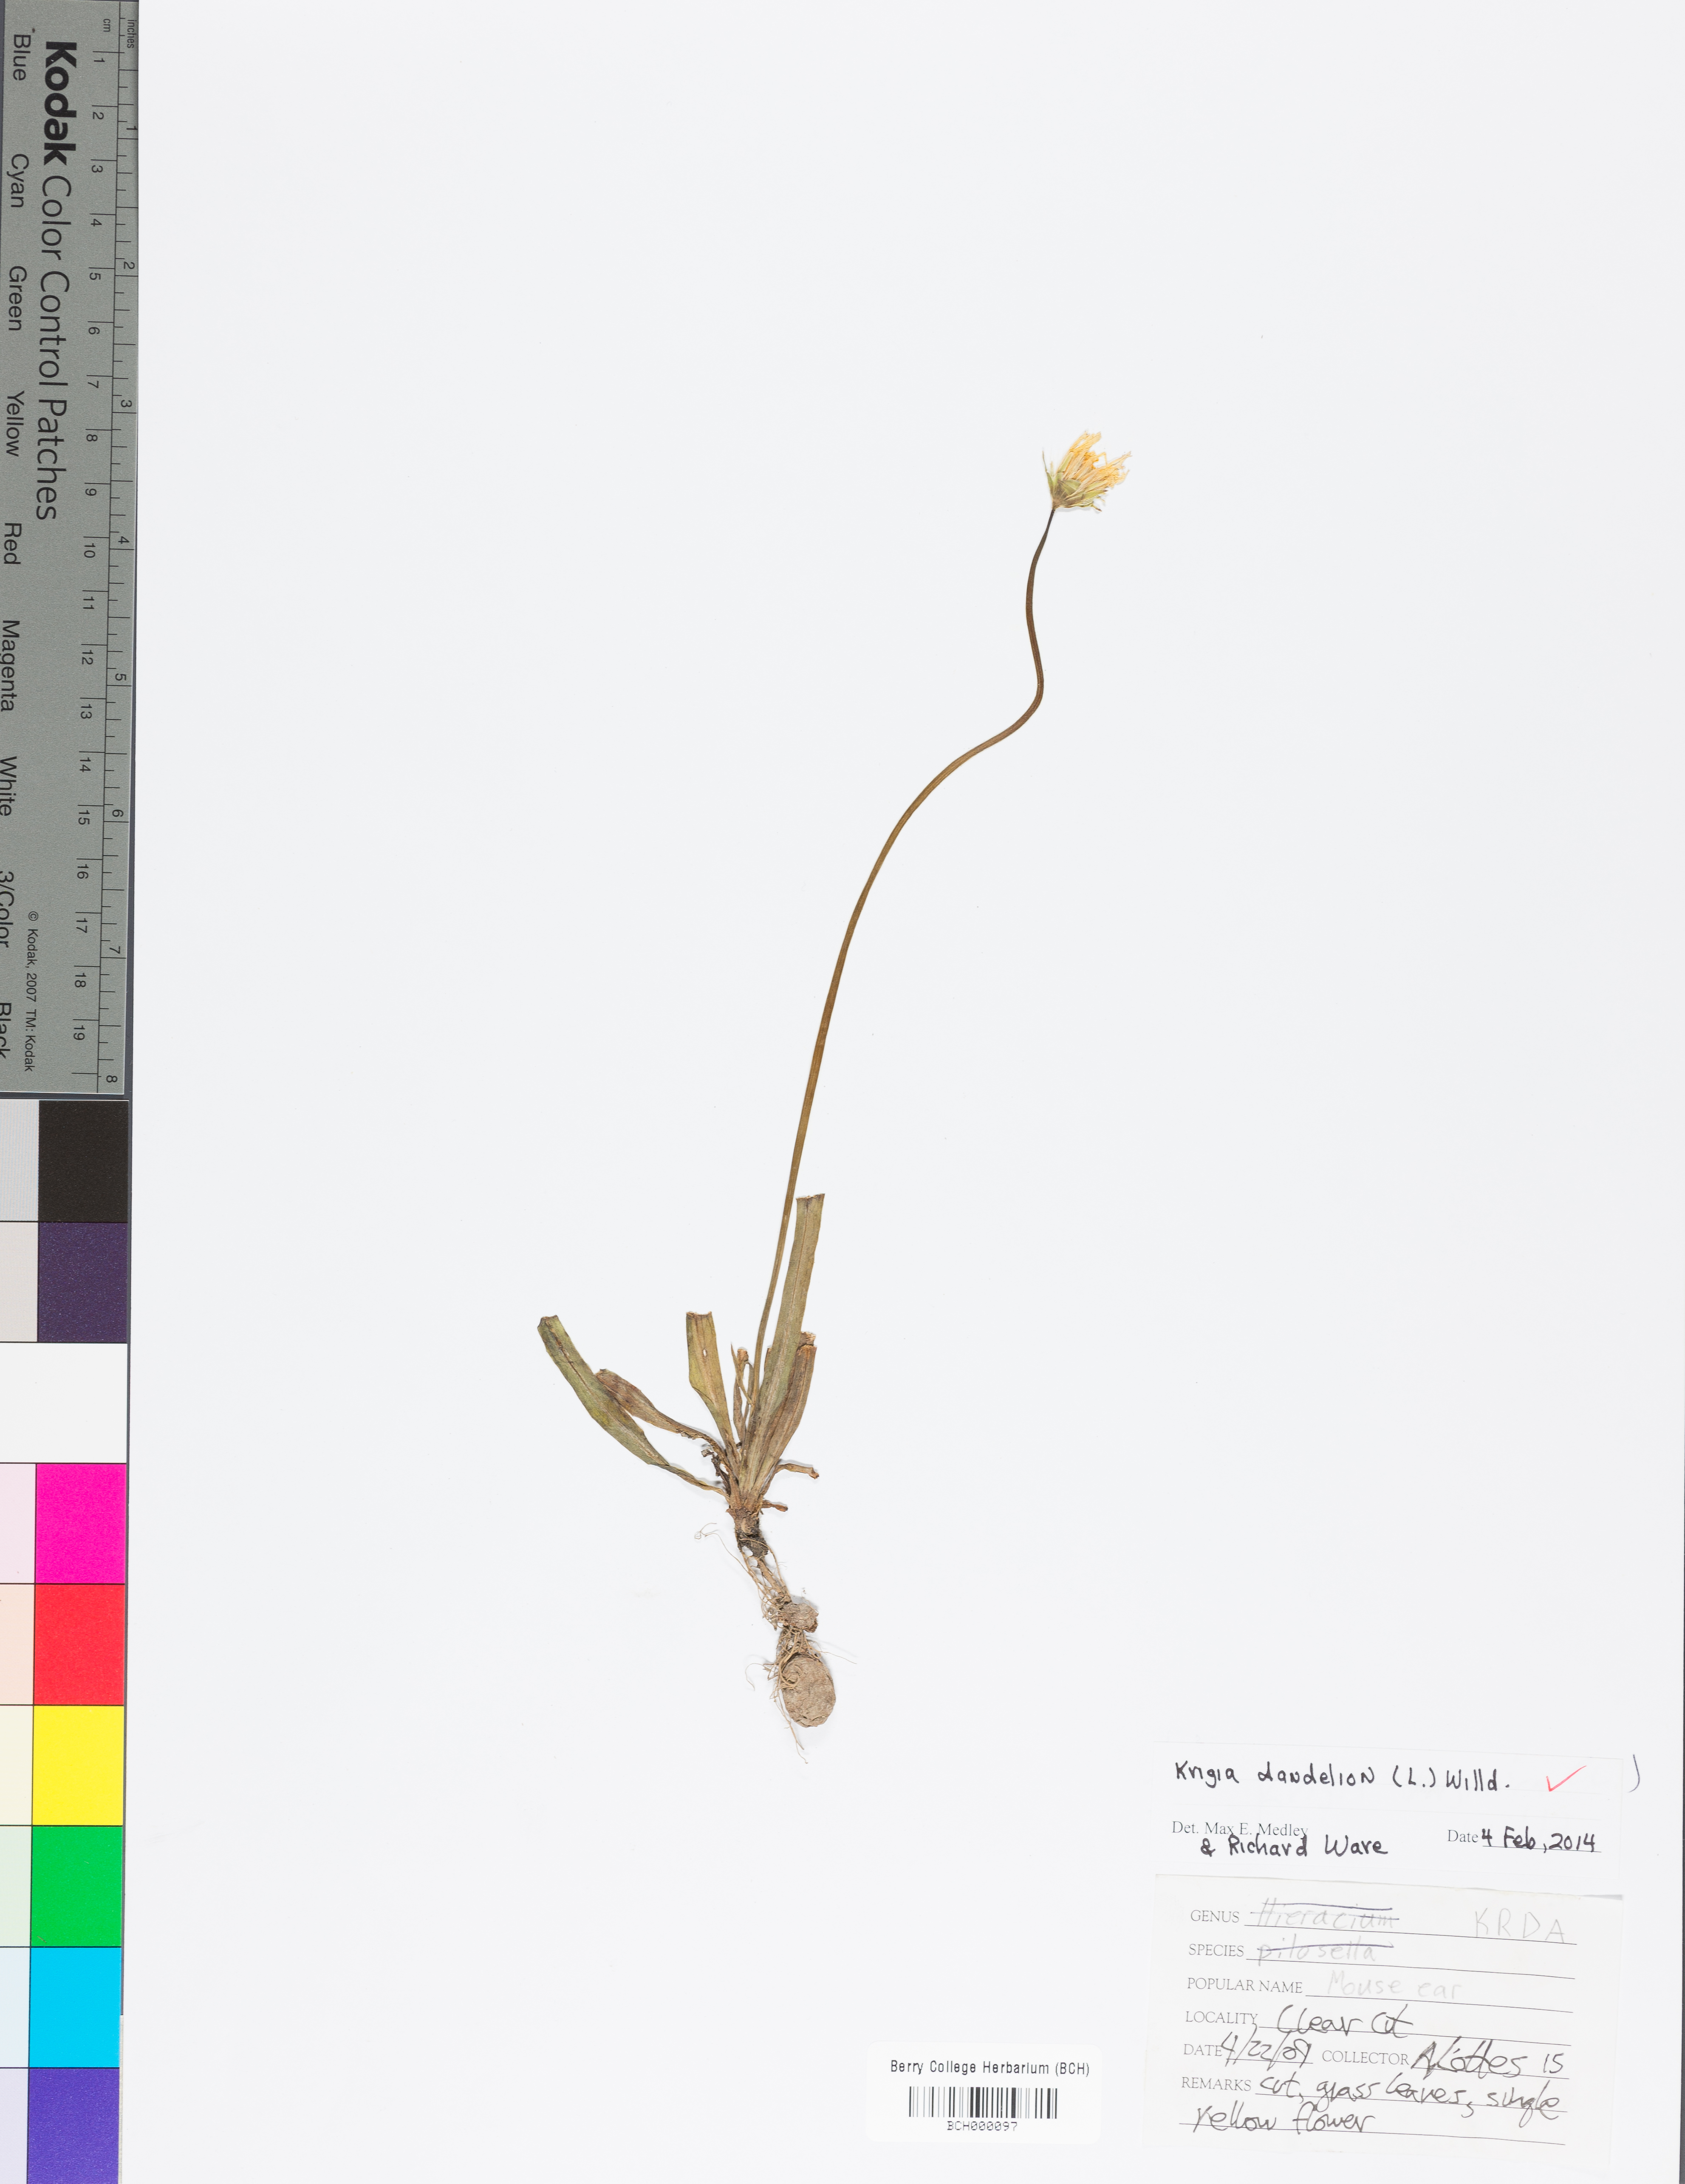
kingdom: Plantae
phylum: Tracheophyta
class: Magnoliopsida
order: Asterales
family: Asteraceae
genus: Krigia
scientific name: Krigia dandelion
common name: Colonial dwarf-dandelion
